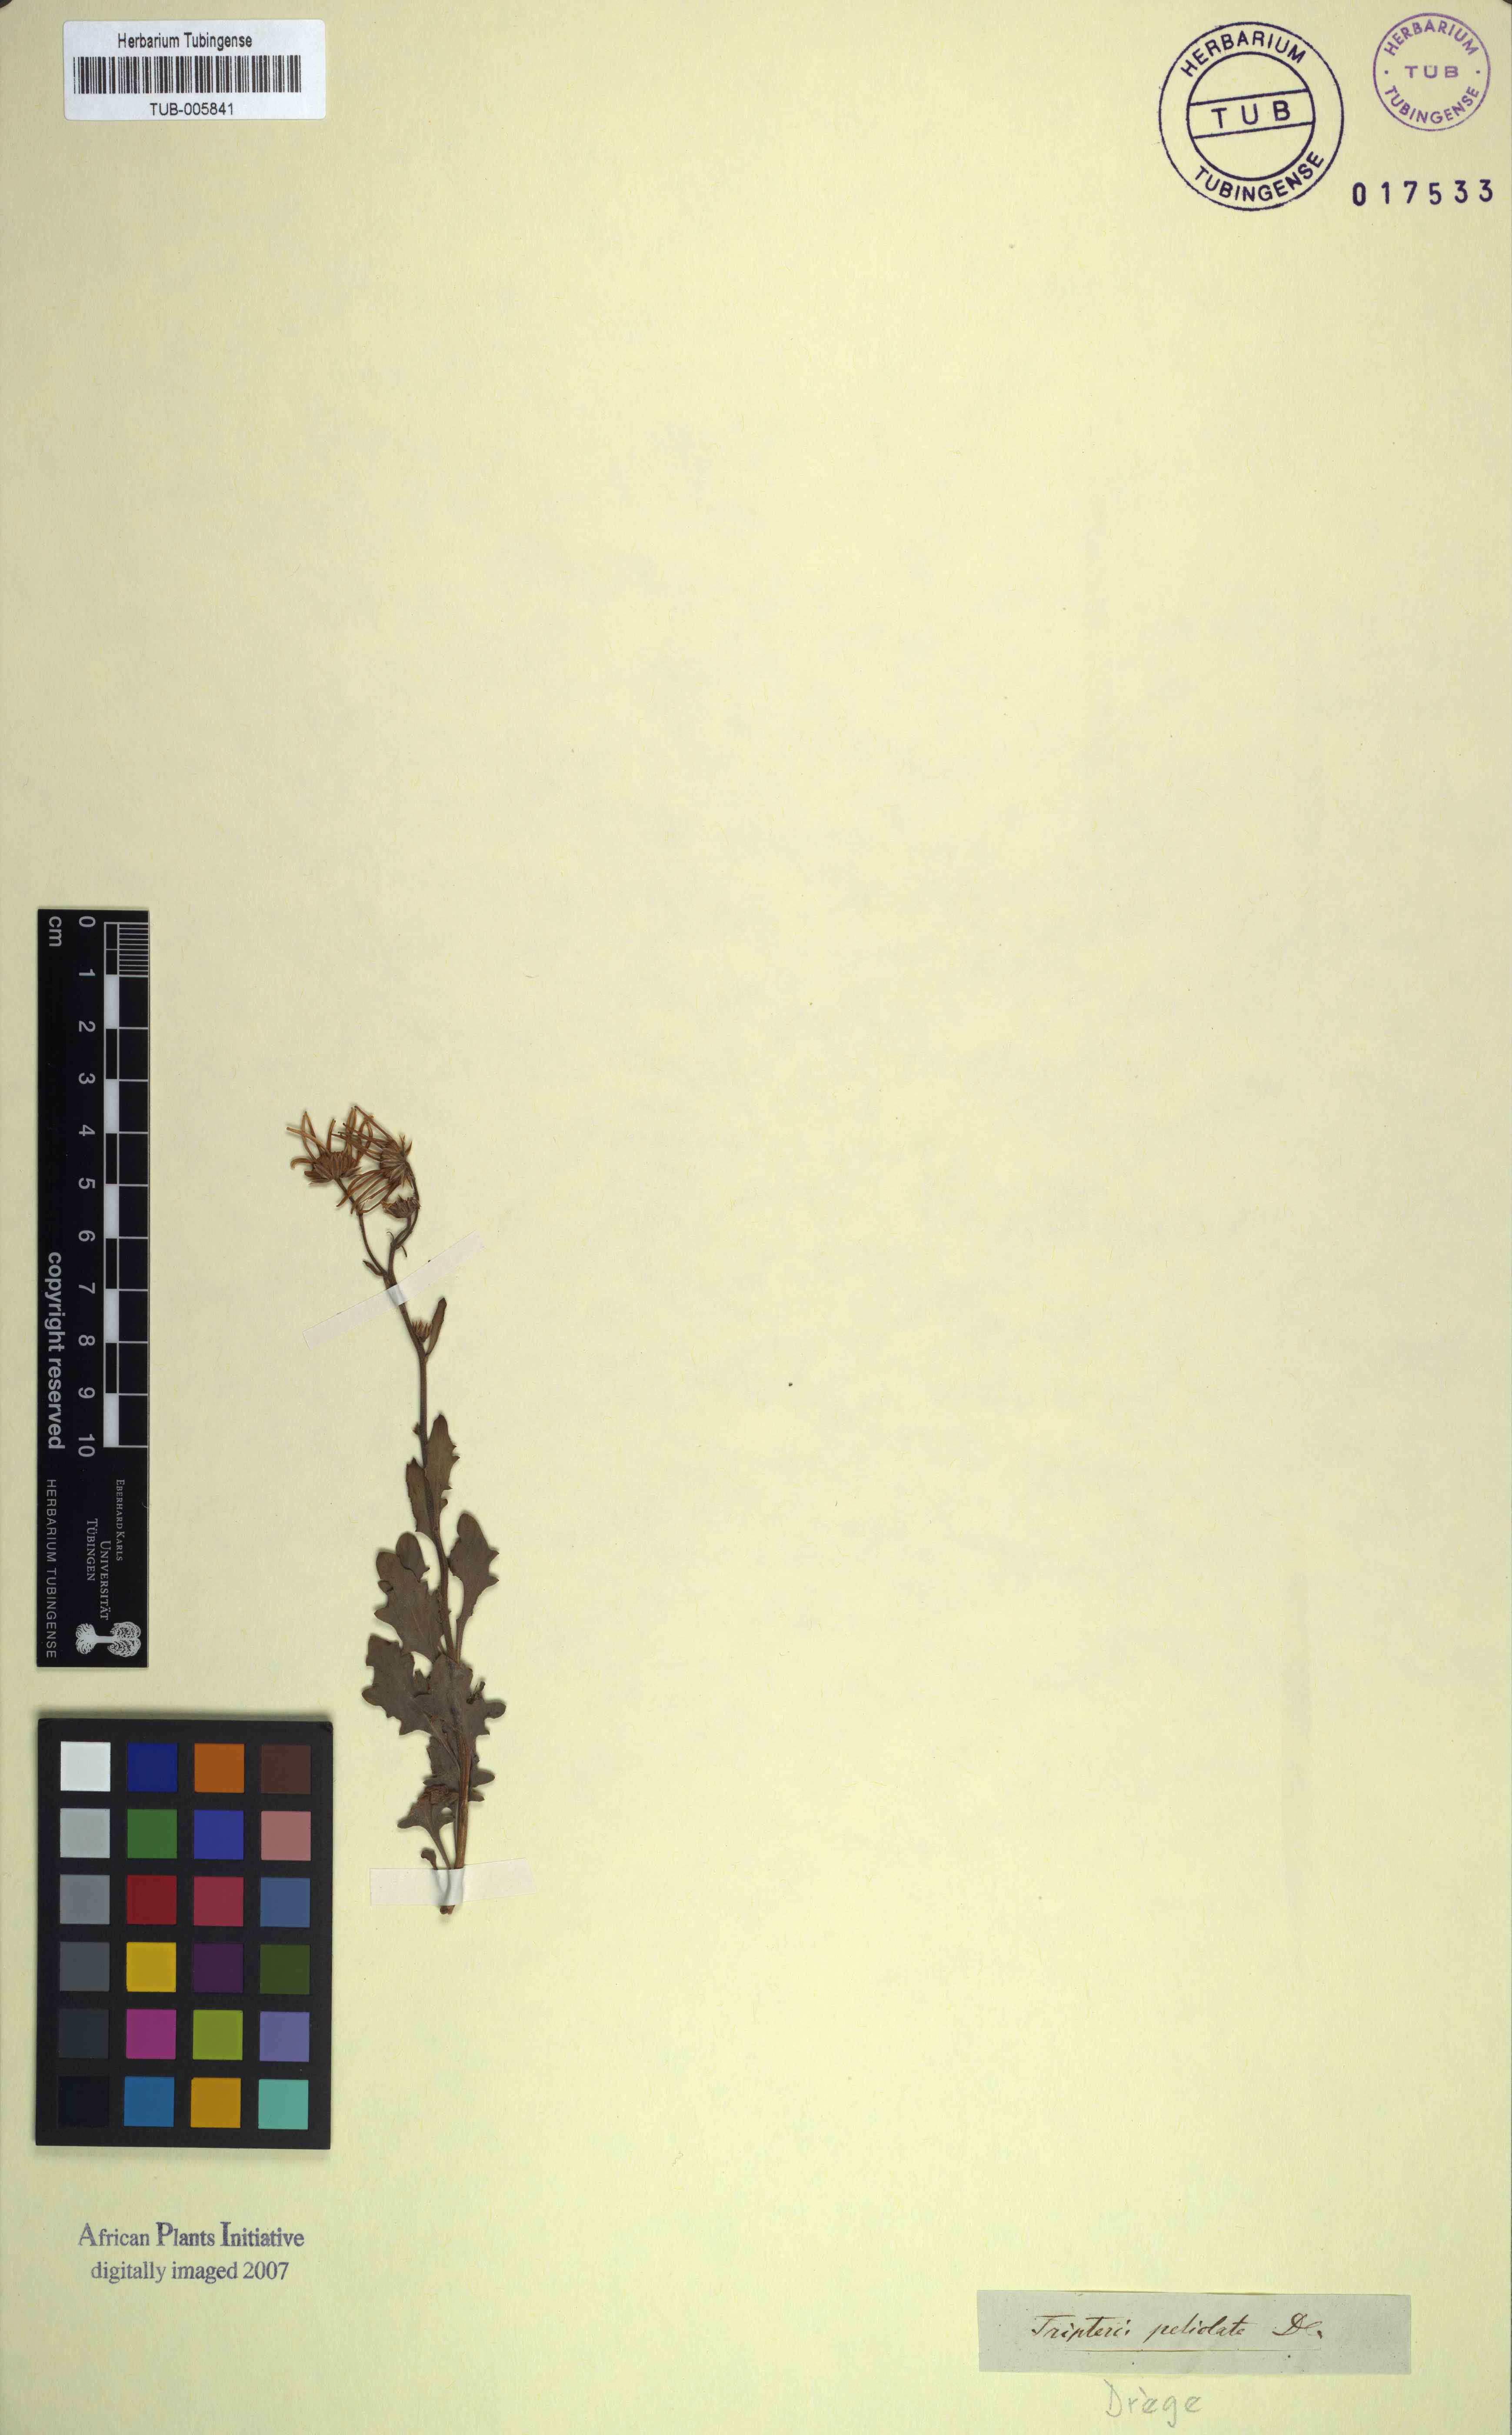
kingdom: Plantae
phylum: Tracheophyta
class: Magnoliopsida
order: Asterales
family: Asteraceae
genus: Osteospermum
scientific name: Osteospermum grandiflorum
